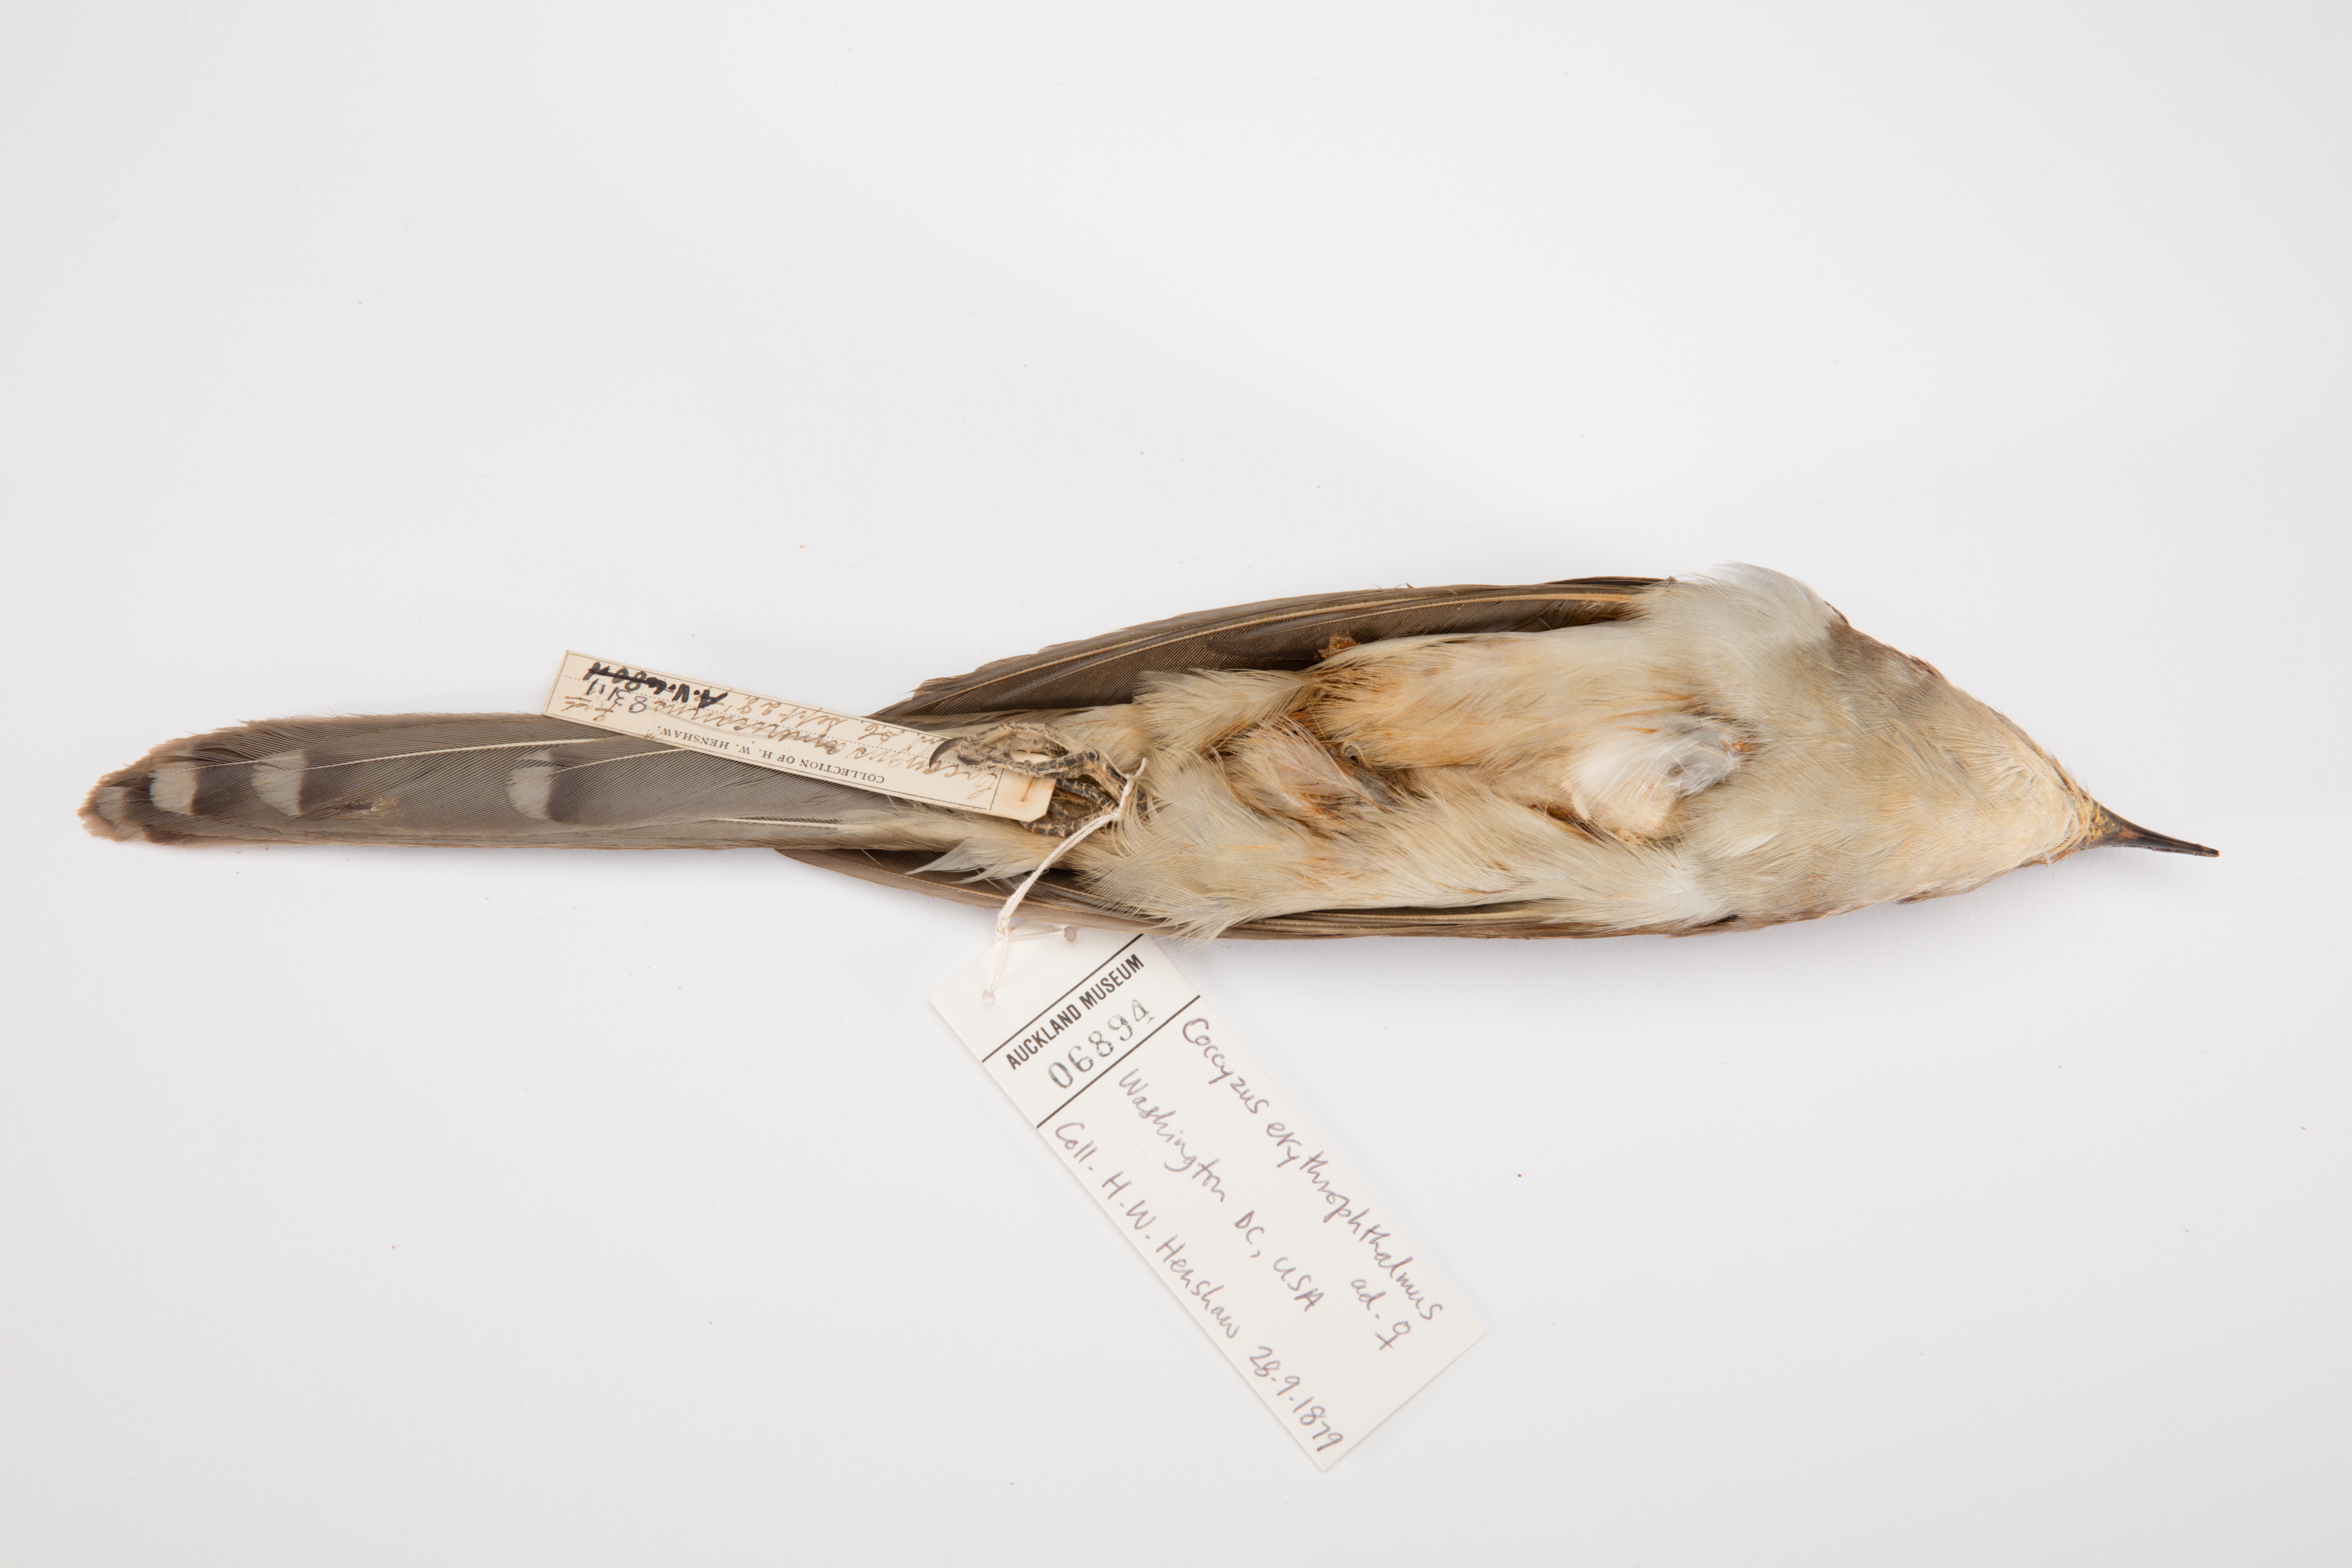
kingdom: Animalia
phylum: Chordata
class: Aves
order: Cuculiformes
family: Cuculidae
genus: Coccyzus
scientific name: Coccyzus erythropthalmus
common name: Black-billed cuckoo
